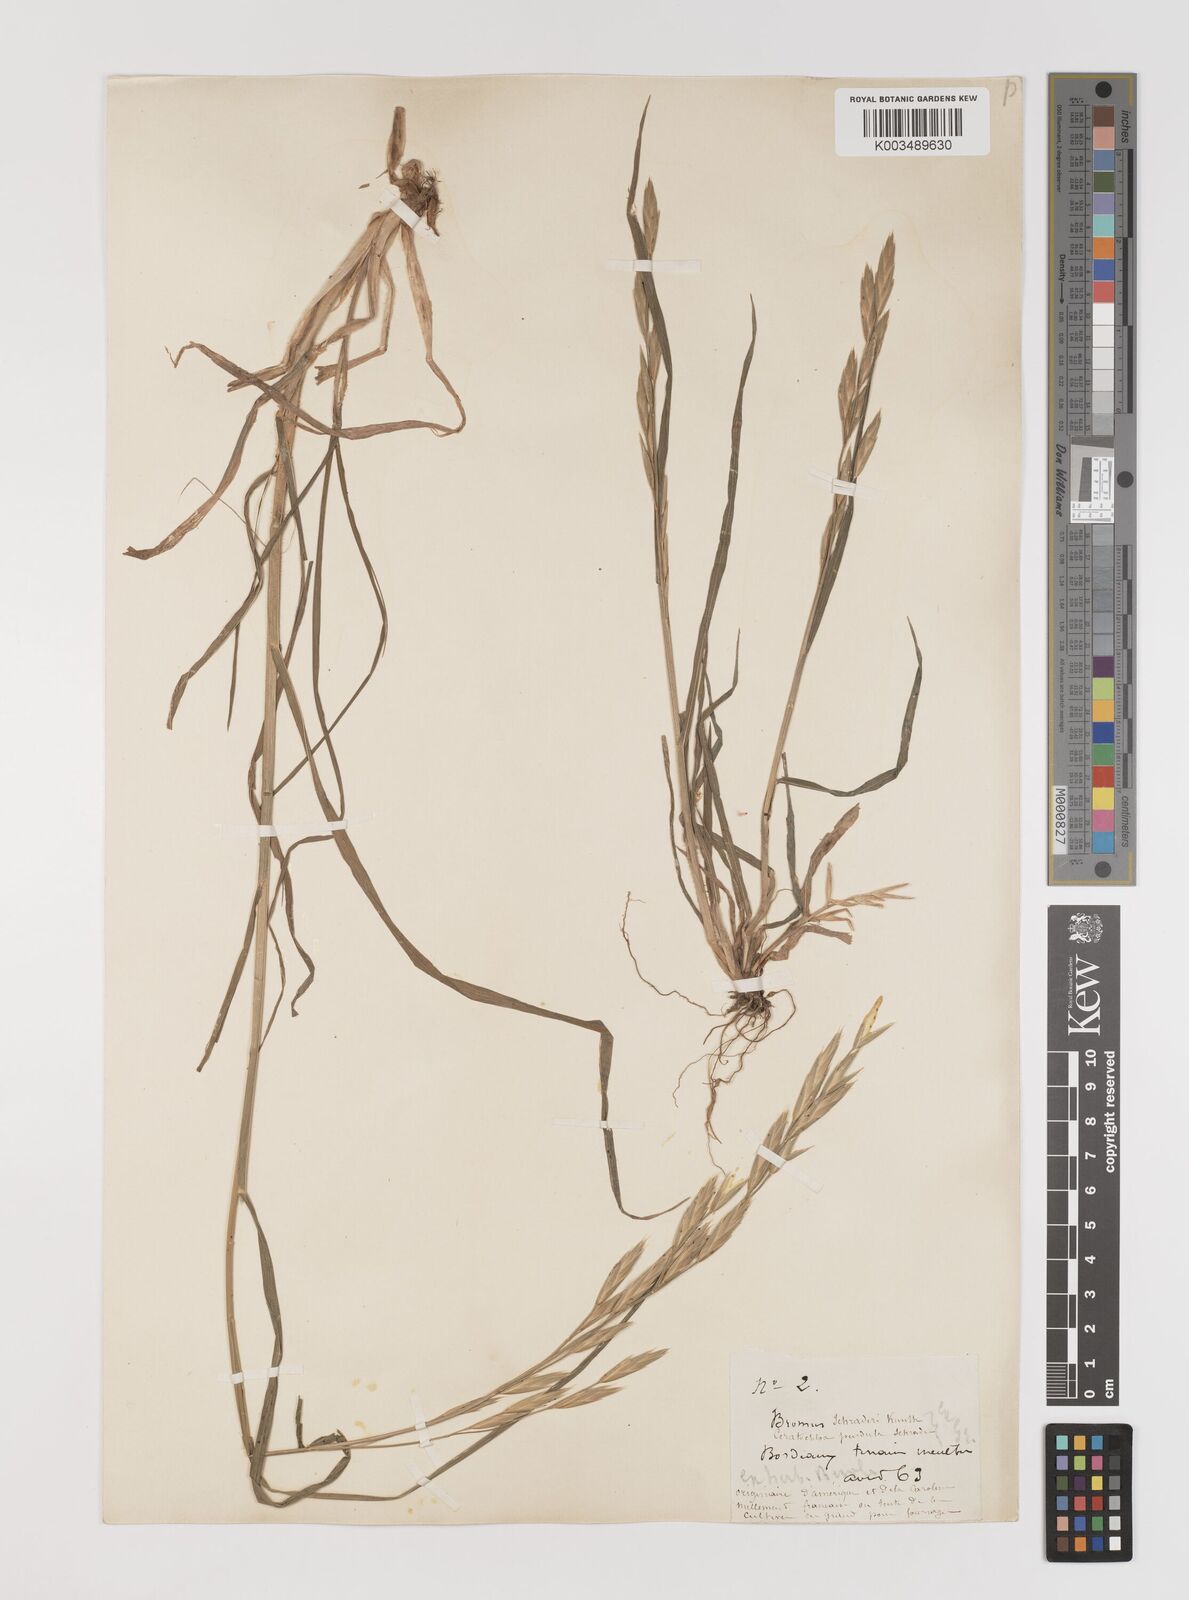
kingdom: Plantae
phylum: Tracheophyta
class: Liliopsida
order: Poales
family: Poaceae
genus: Bromus
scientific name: Bromus catharticus
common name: Rescuegrass
